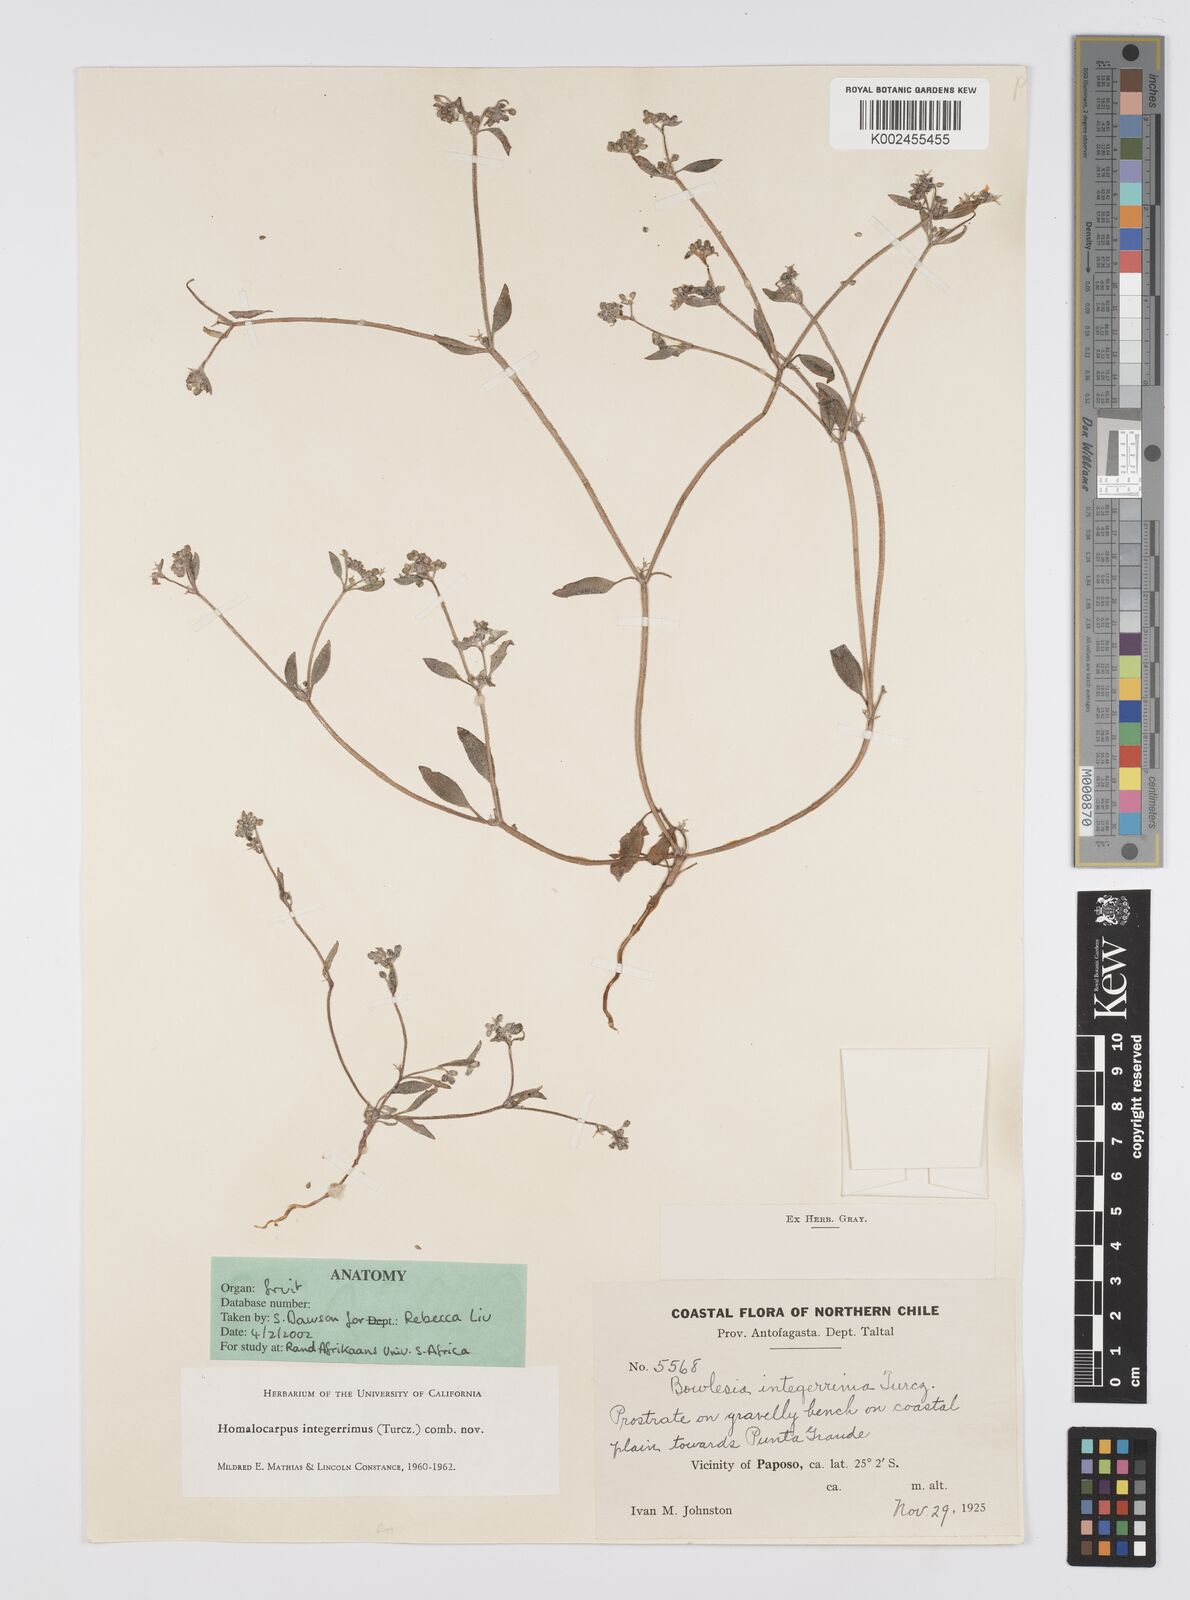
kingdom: Plantae
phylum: Tracheophyta
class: Magnoliopsida
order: Apiales
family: Apiaceae
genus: Homalocarpus
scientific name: Homalocarpus integerrimus
